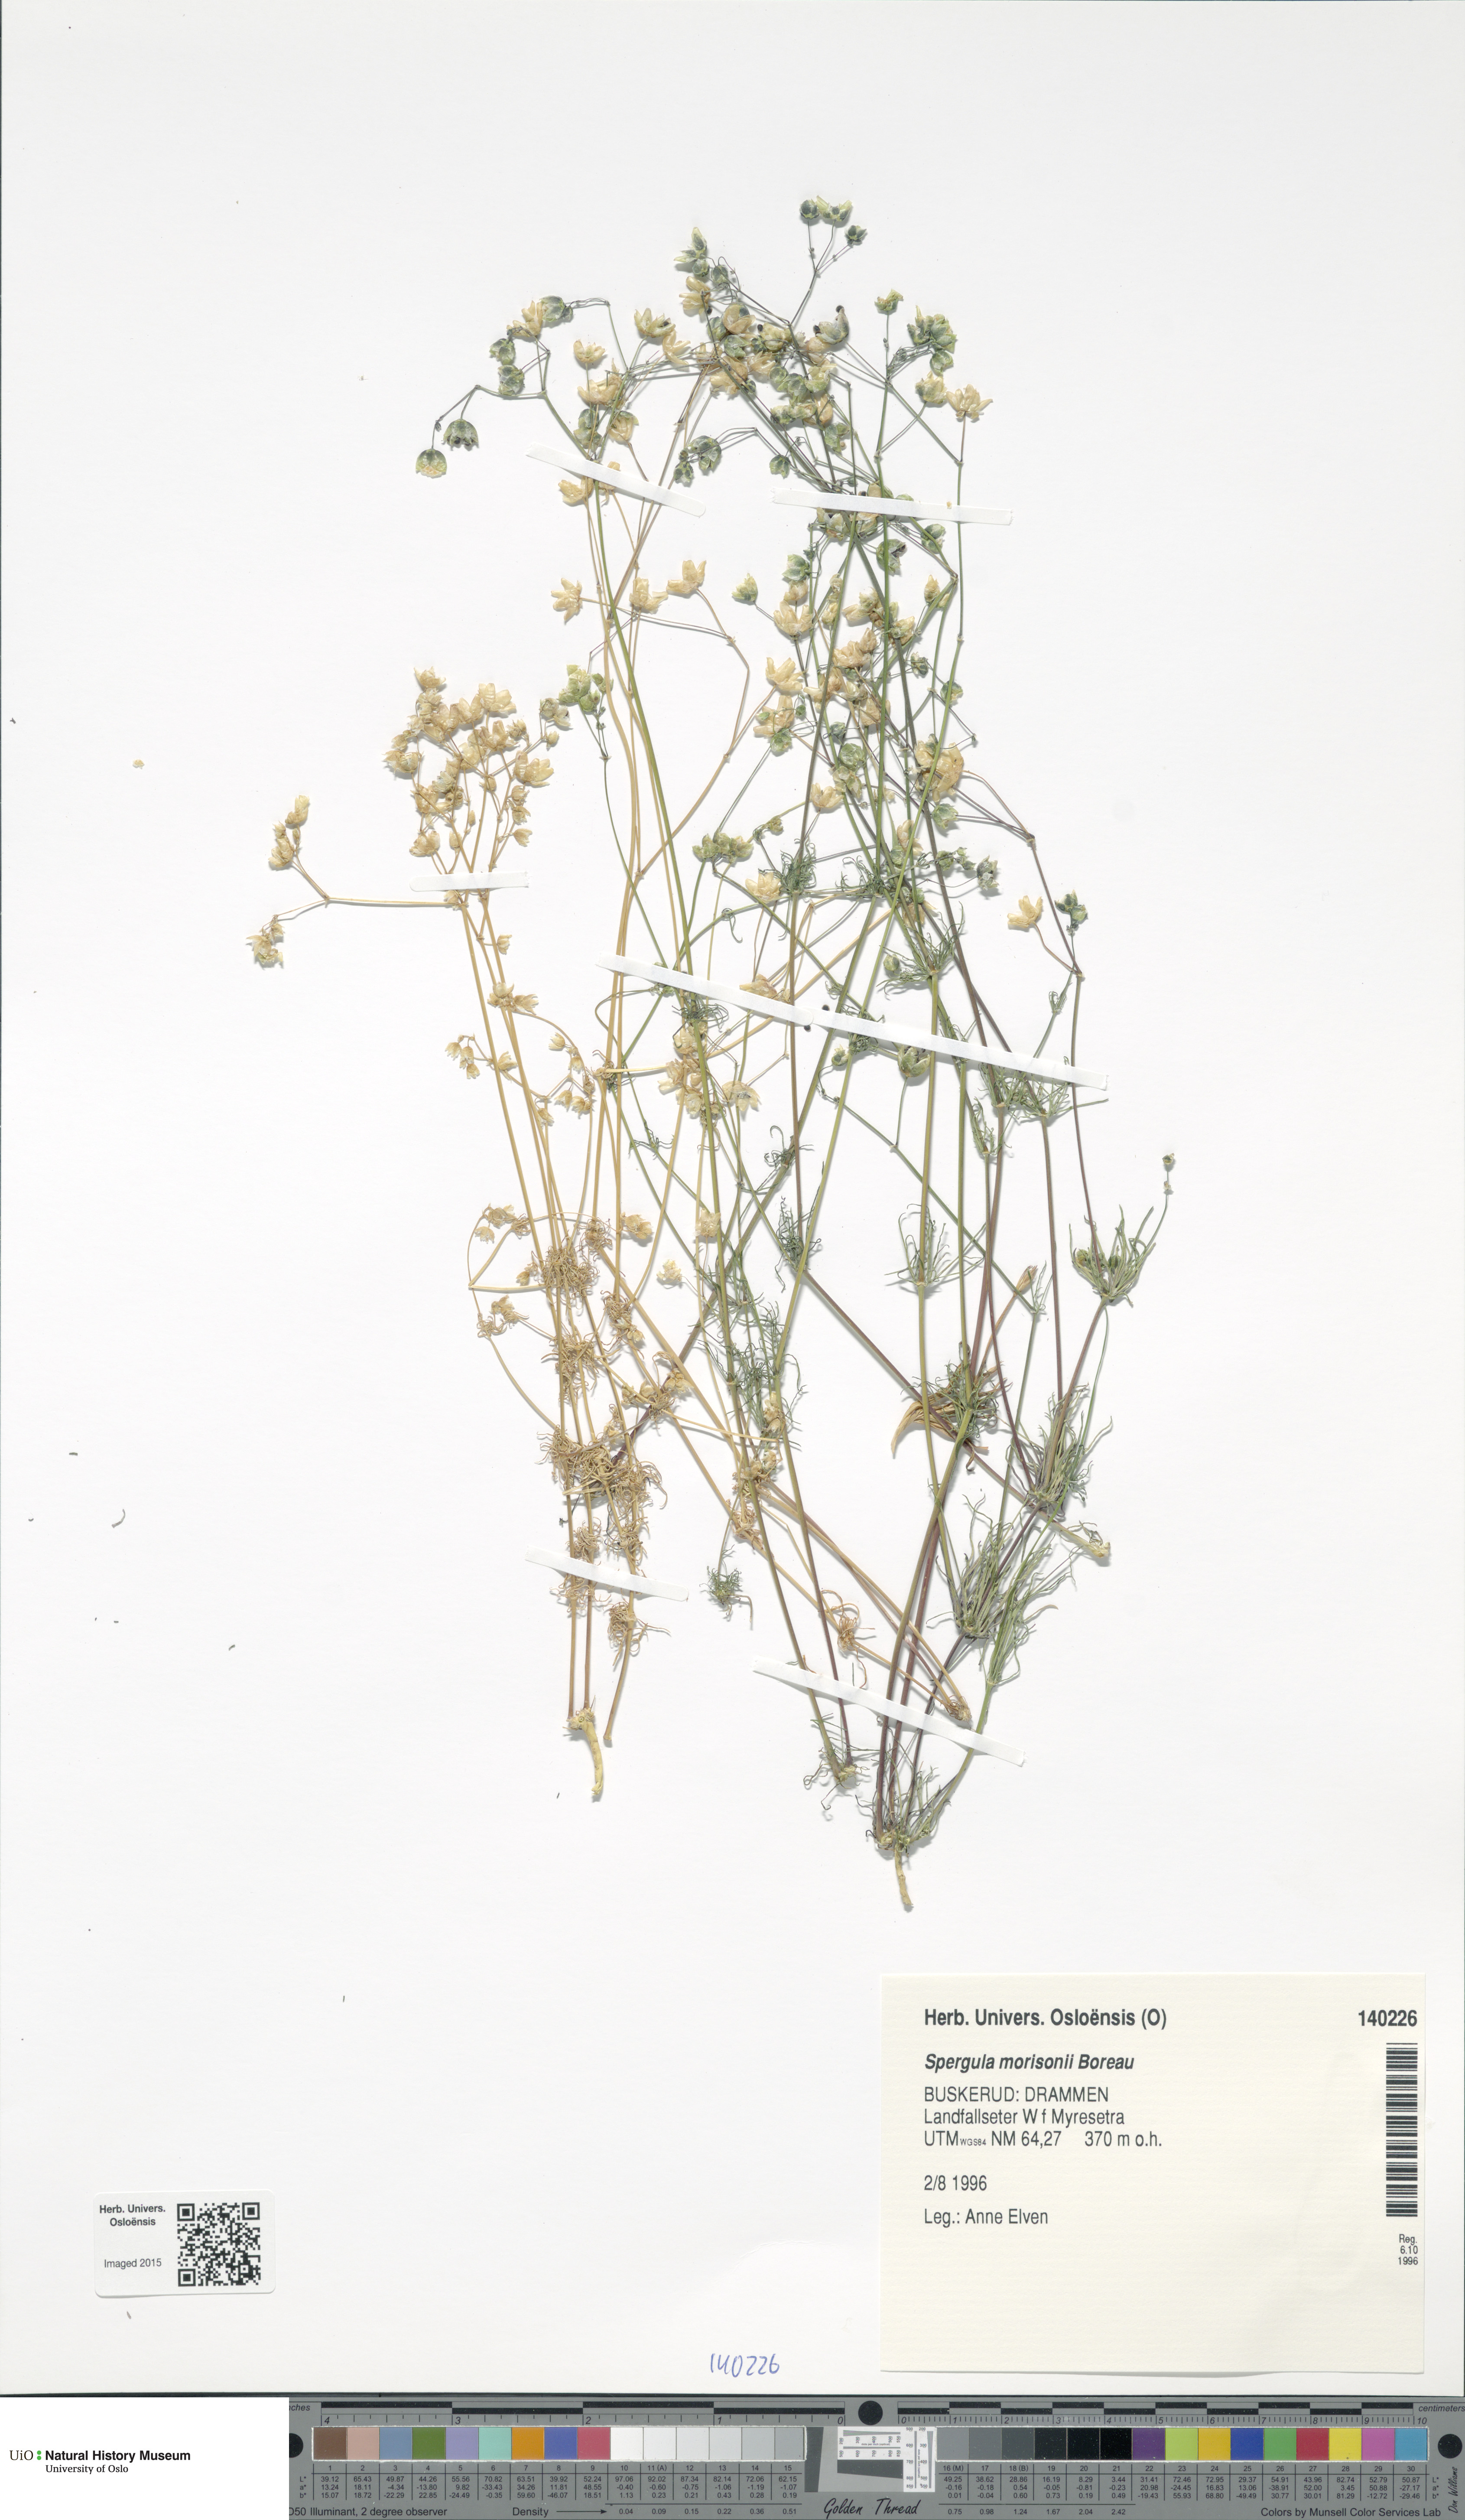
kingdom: Plantae
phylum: Tracheophyta
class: Magnoliopsida
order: Caryophyllales
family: Caryophyllaceae
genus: Spergula
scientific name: Spergula morisonii
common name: Pearlwort spurrey
